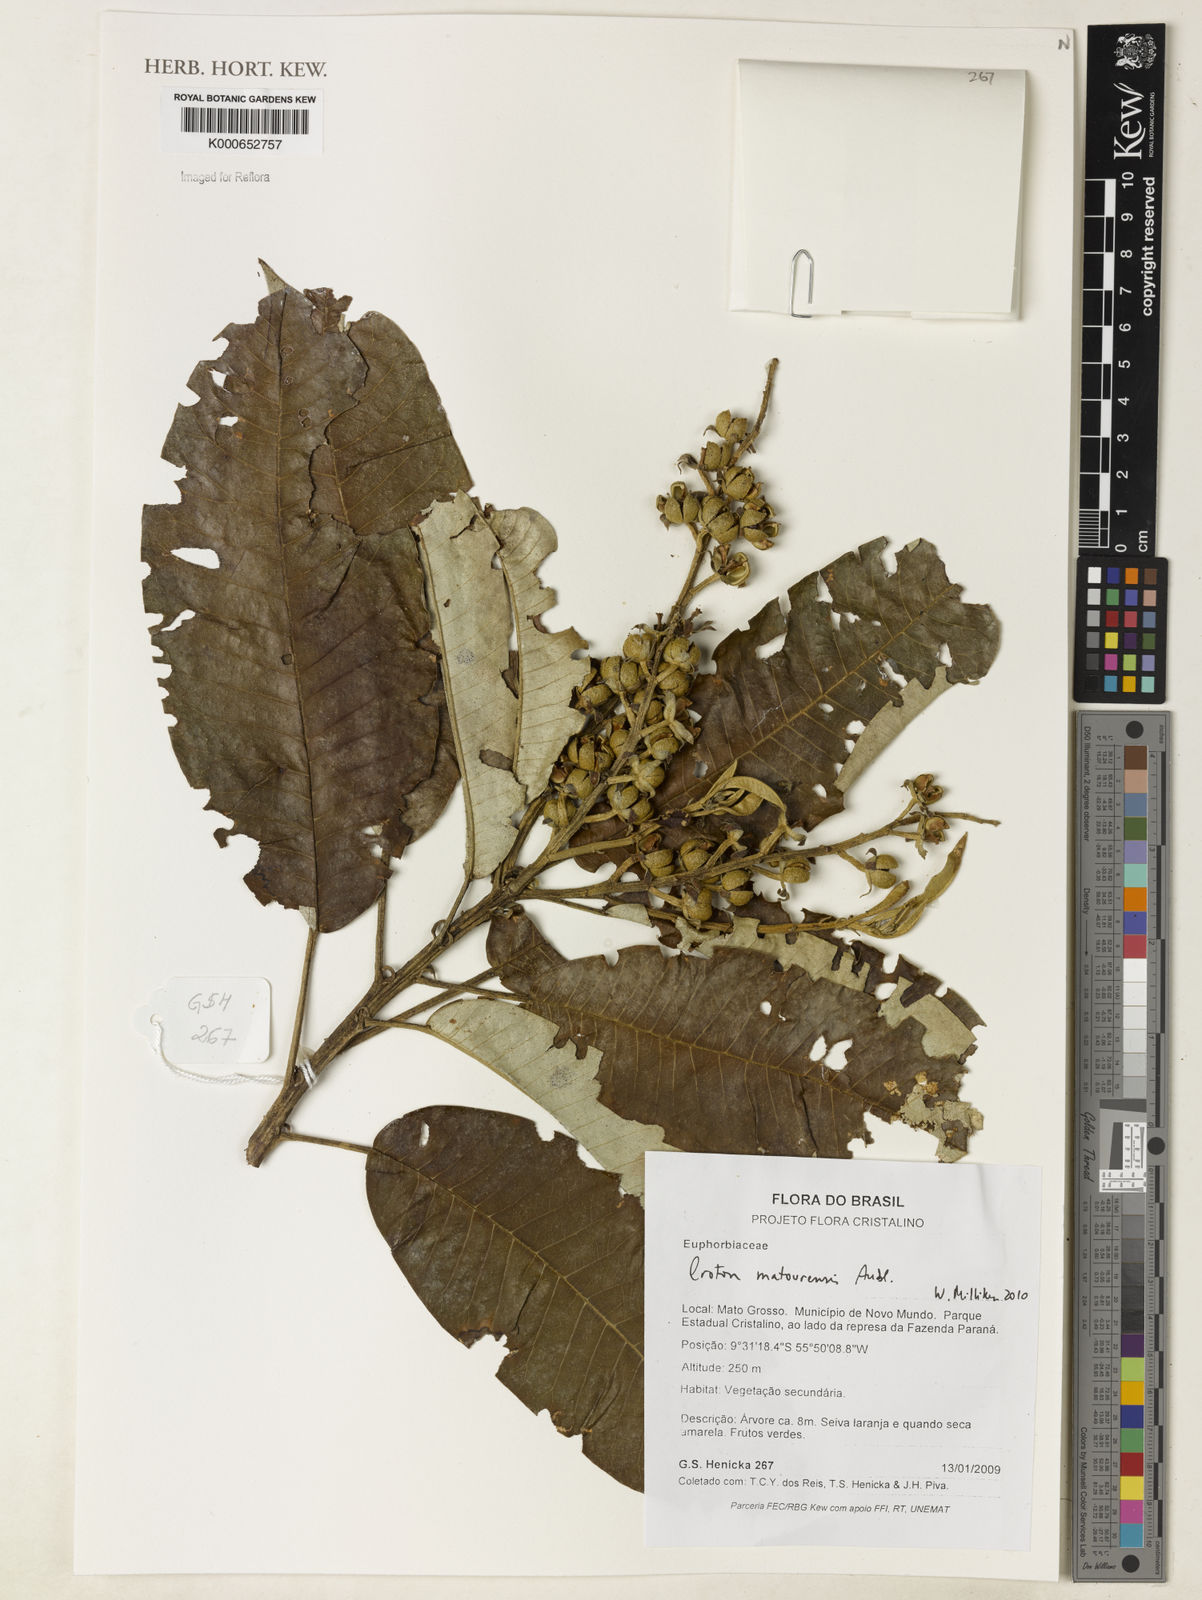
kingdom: Plantae
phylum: Tracheophyta
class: Magnoliopsida
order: Malpighiales
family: Euphorbiaceae
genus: Croton
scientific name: Croton matourensis
